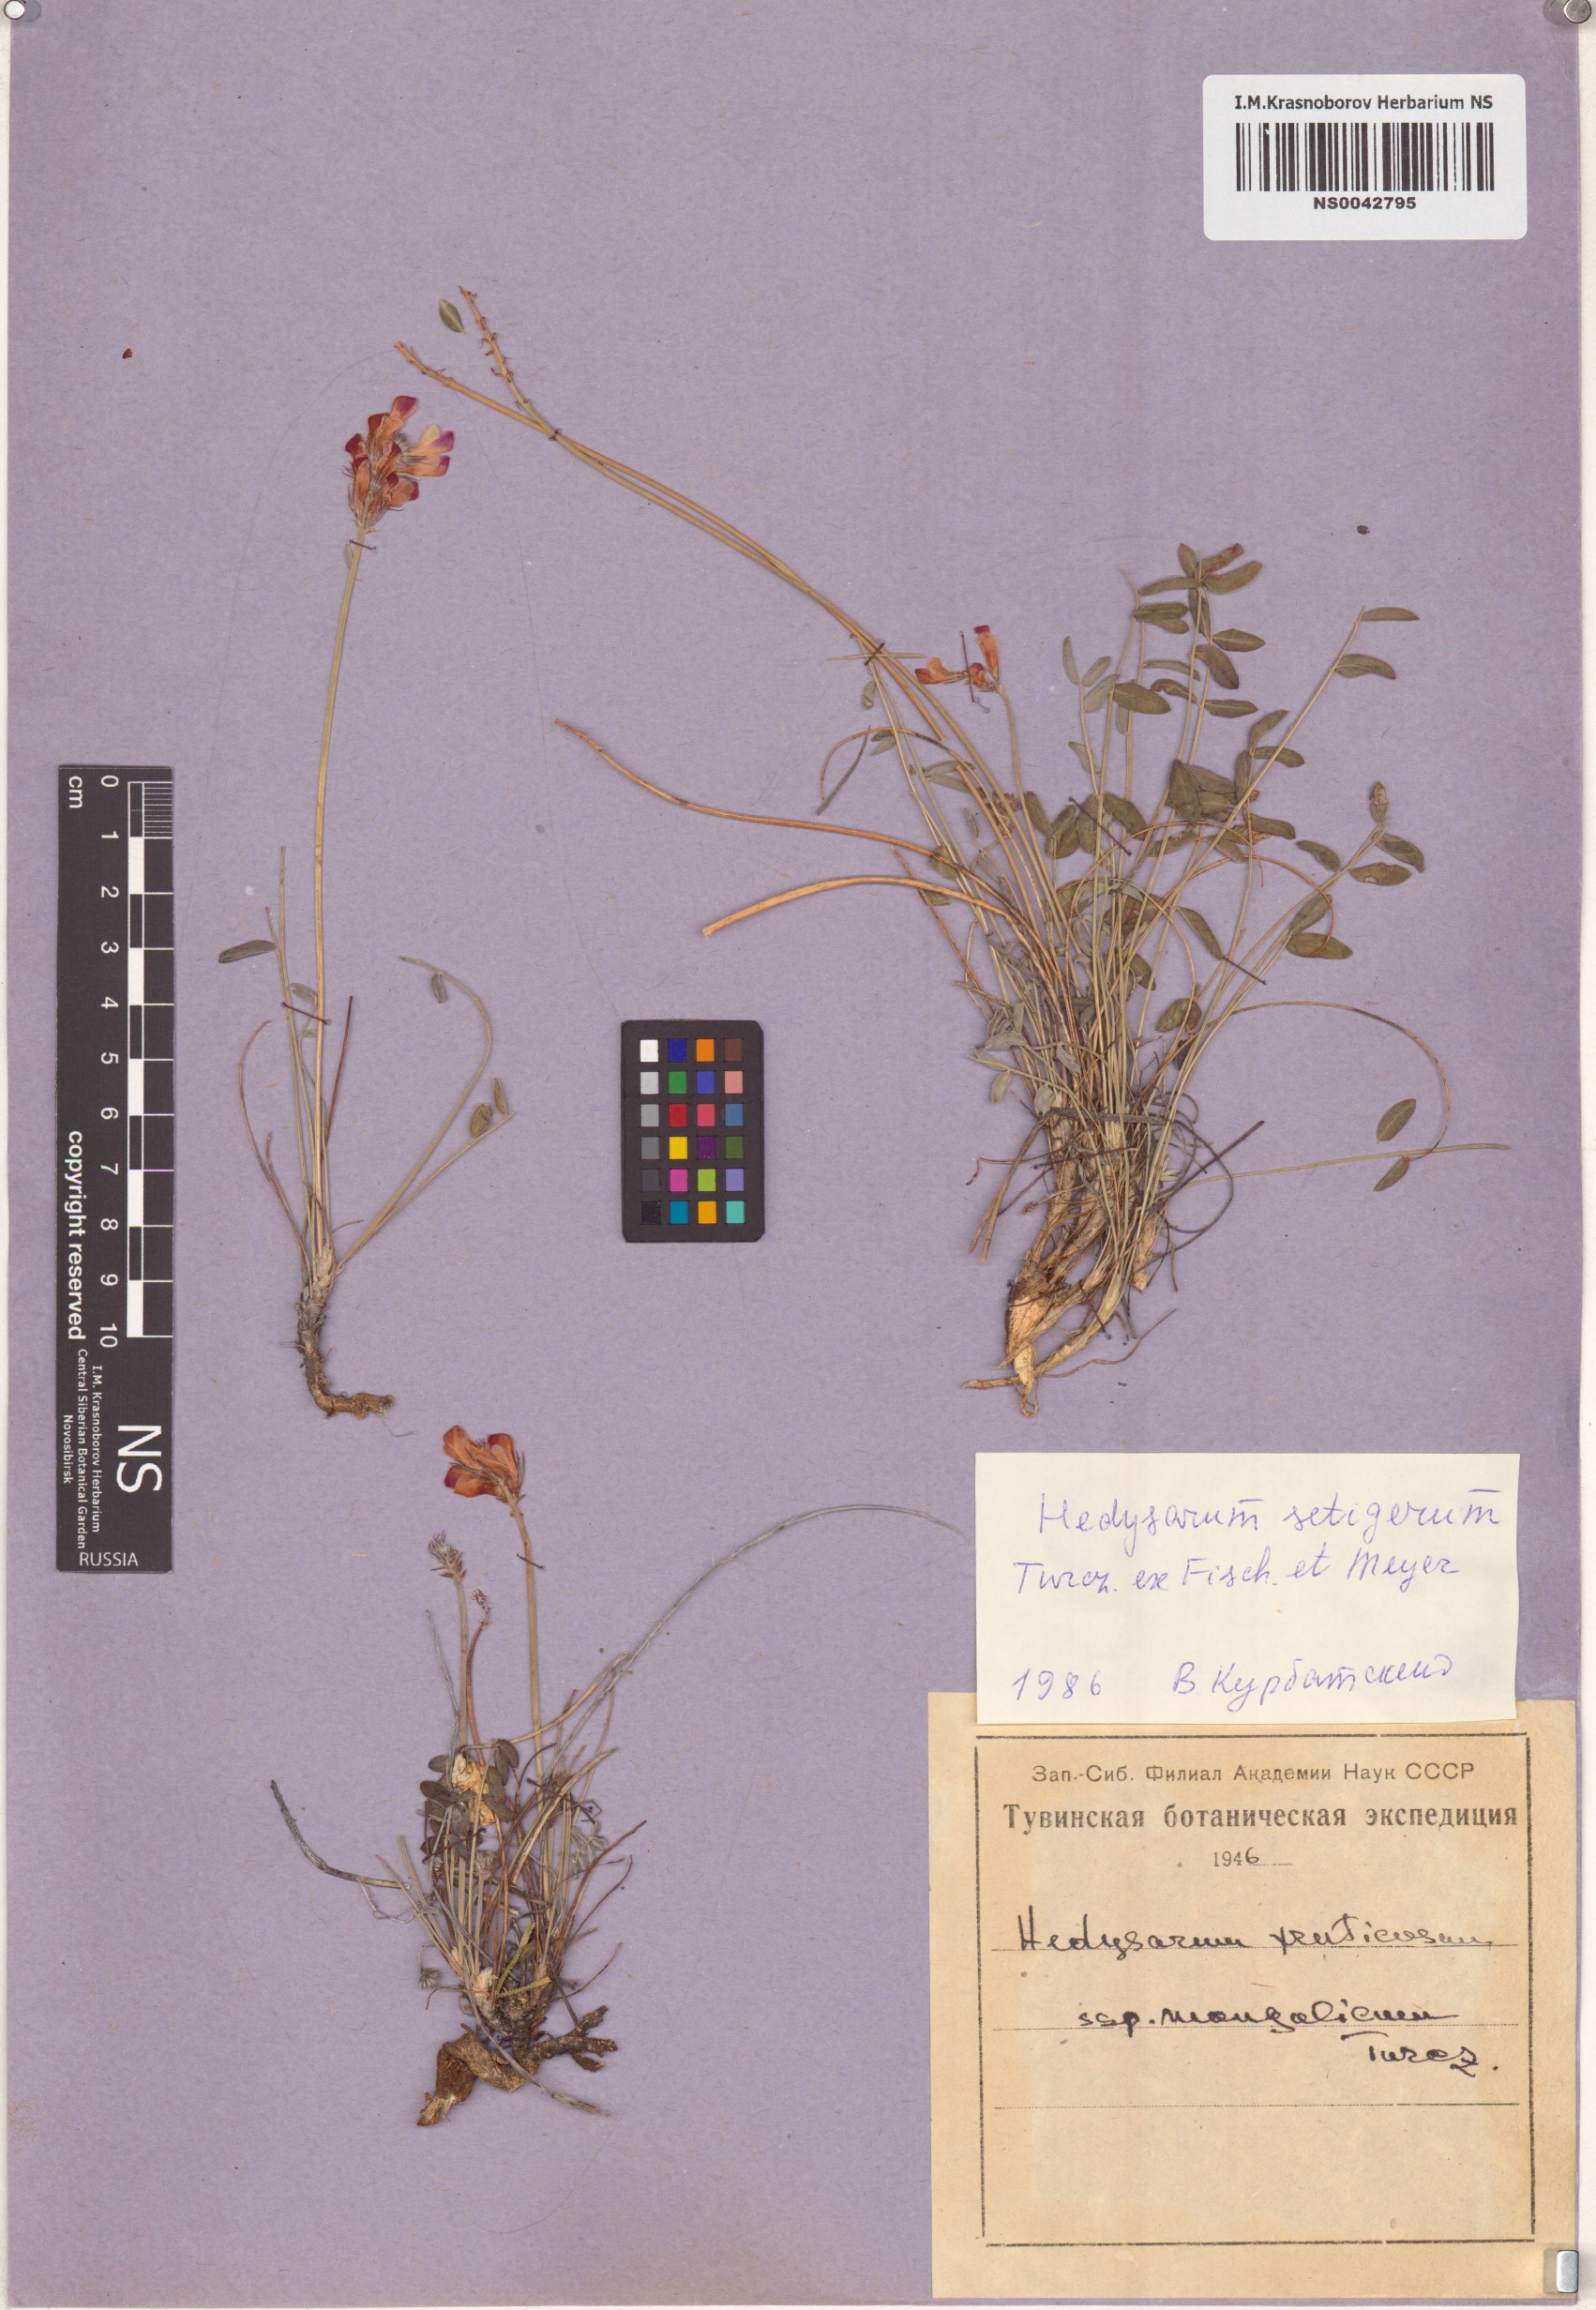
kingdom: Plantae
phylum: Tracheophyta
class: Magnoliopsida
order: Fabales
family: Fabaceae
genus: Hedysarum
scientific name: Hedysarum setigerum
